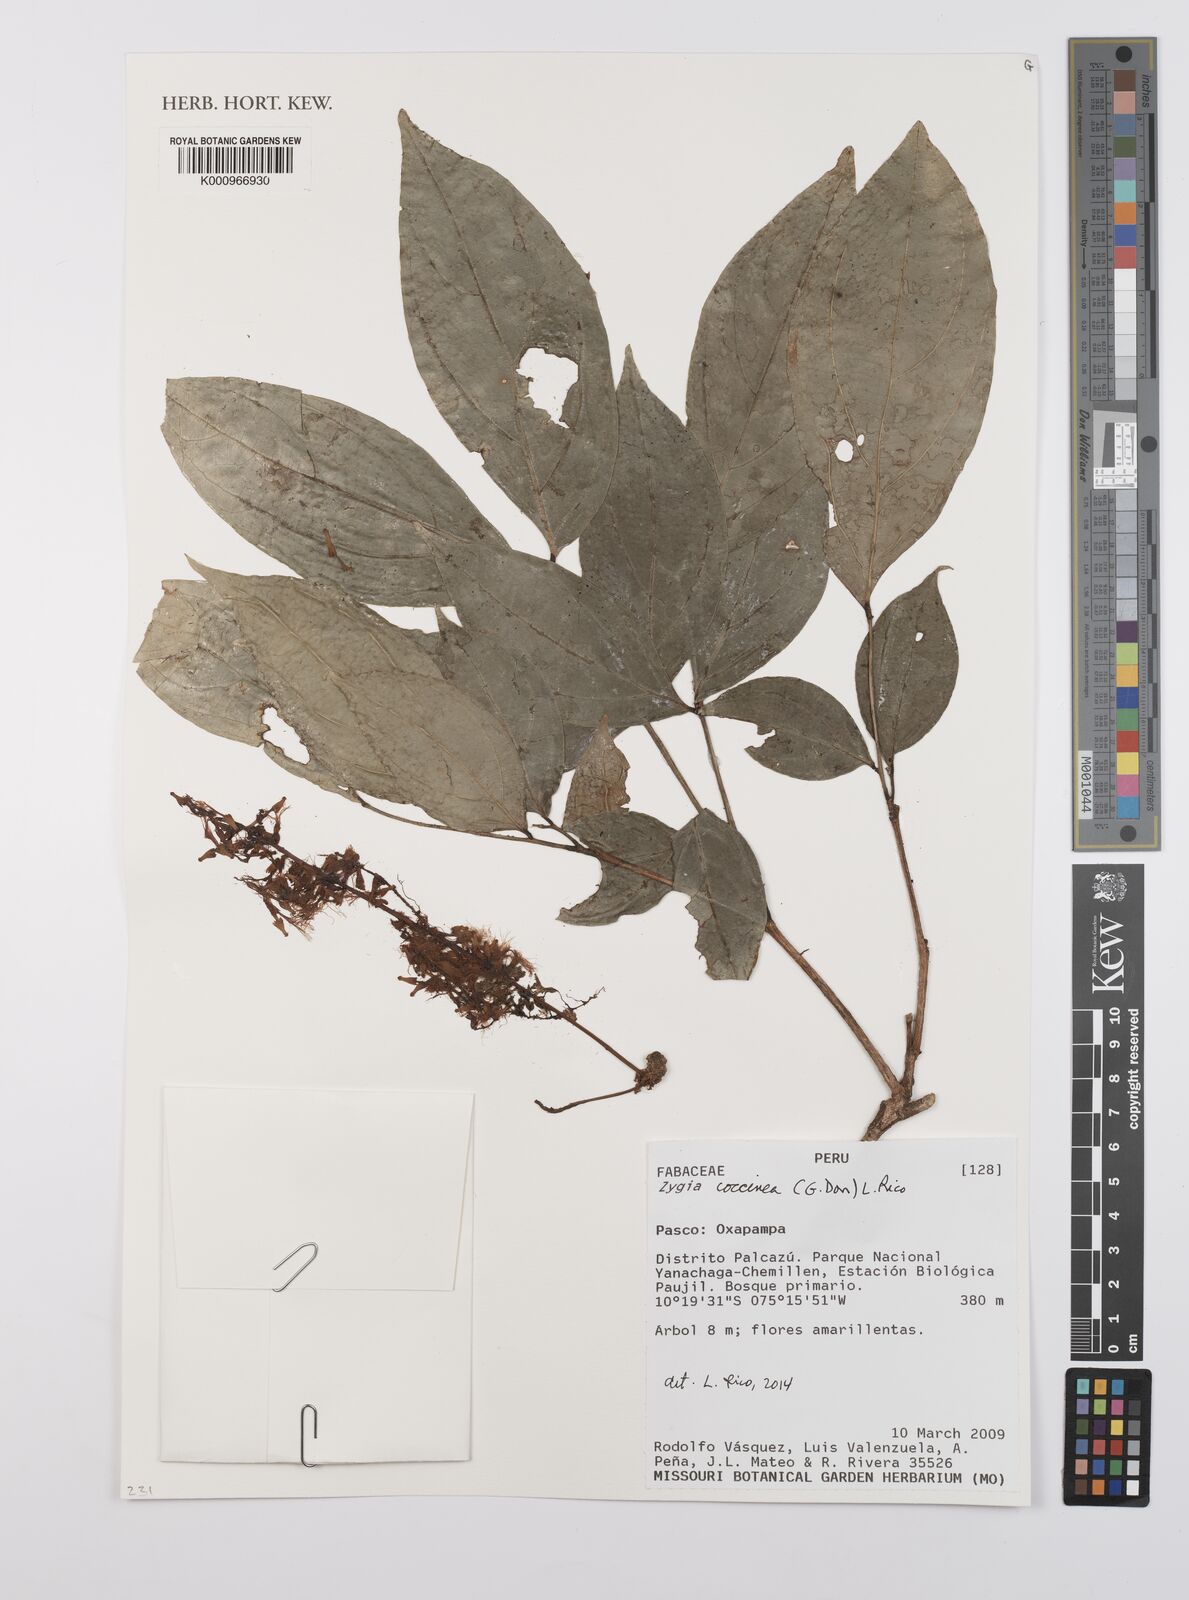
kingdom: Plantae
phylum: Tracheophyta
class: Magnoliopsida
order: Fabales
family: Fabaceae
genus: Zygia
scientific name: Zygia coccinea
